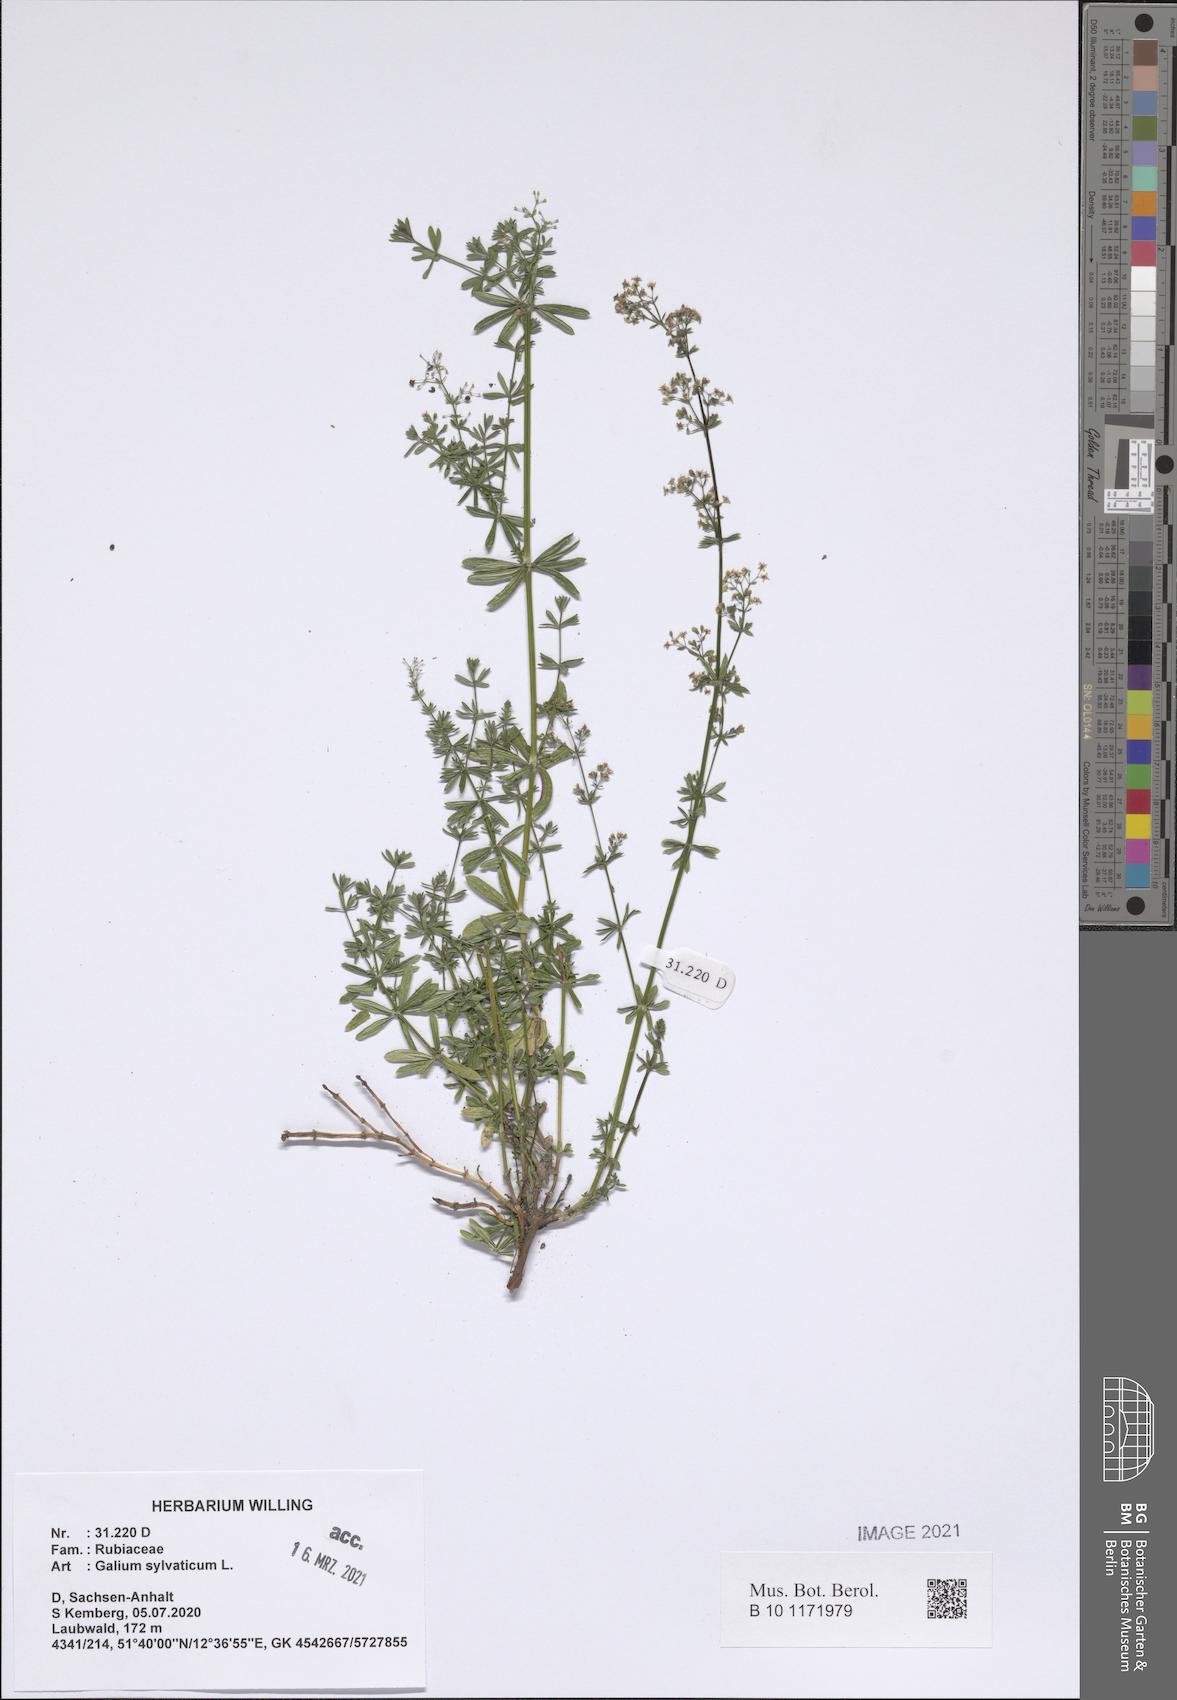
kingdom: Plantae
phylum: Tracheophyta
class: Magnoliopsida
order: Gentianales
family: Rubiaceae
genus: Galium
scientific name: Galium sylvaticum
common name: Wood bedstraw
